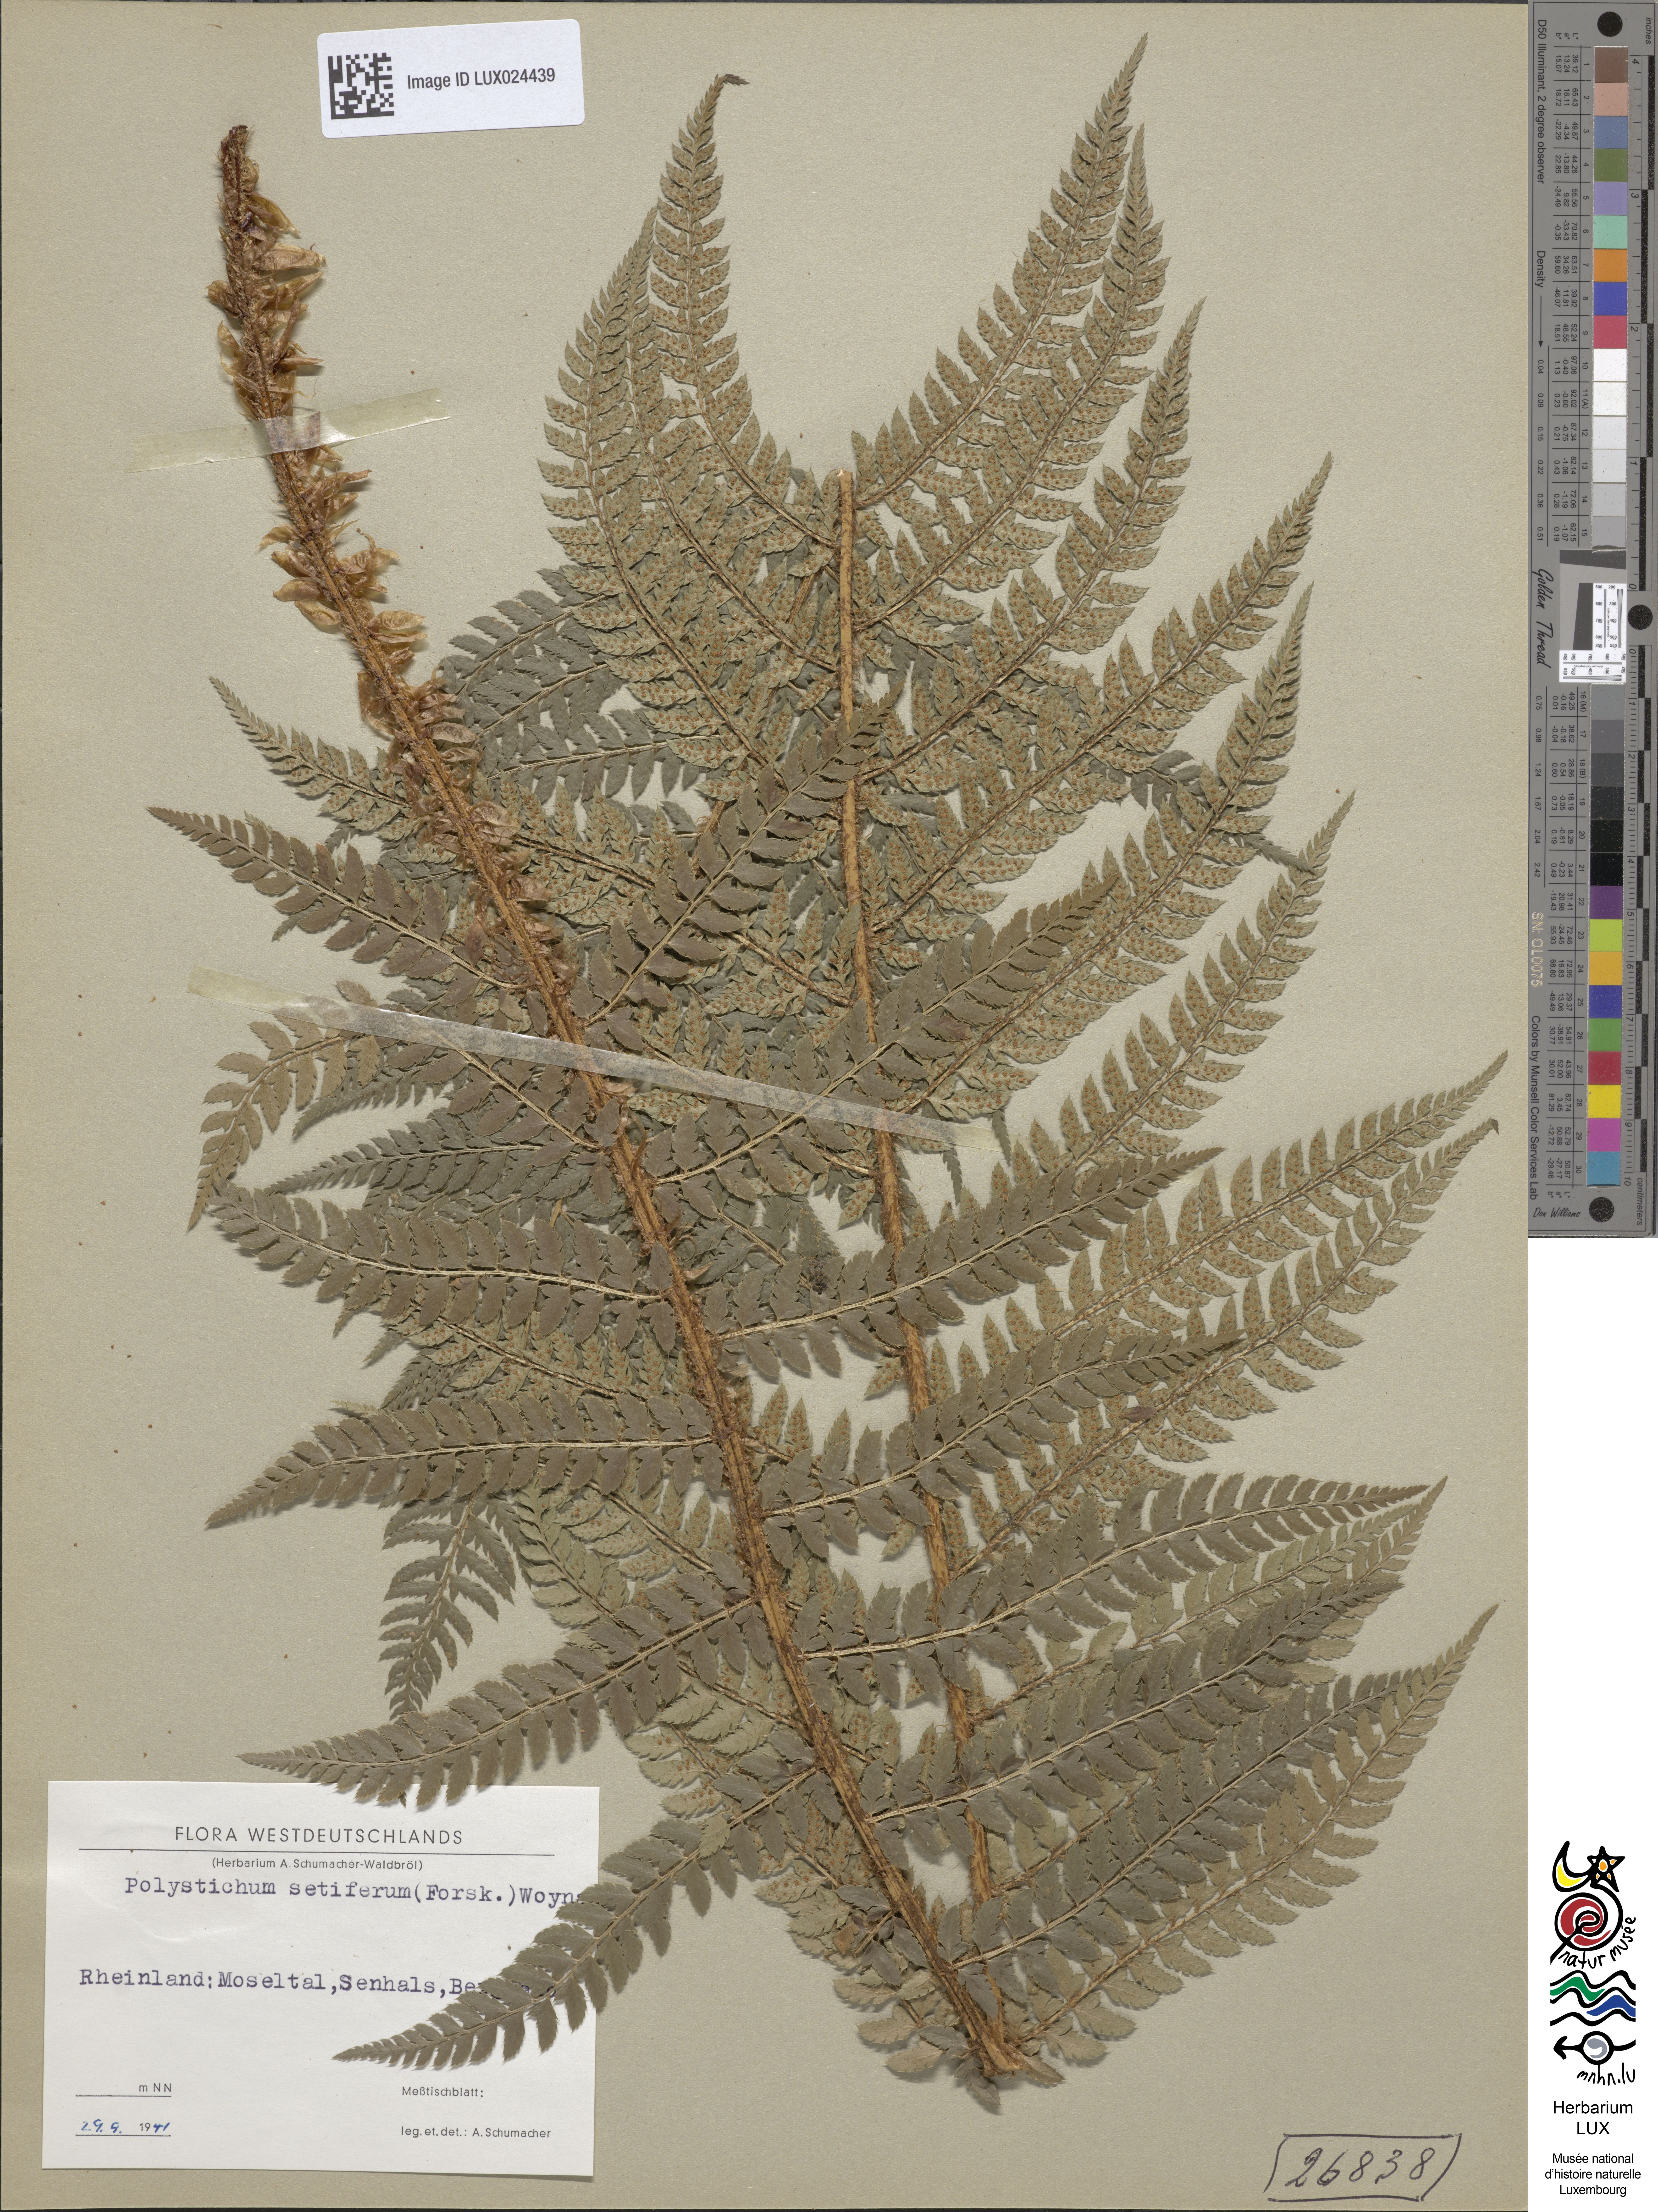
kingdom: Plantae
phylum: Tracheophyta
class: Polypodiopsida
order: Polypodiales
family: Dryopteridaceae
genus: Polystichum
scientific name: Polystichum setiferum
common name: Soft shield-fern
